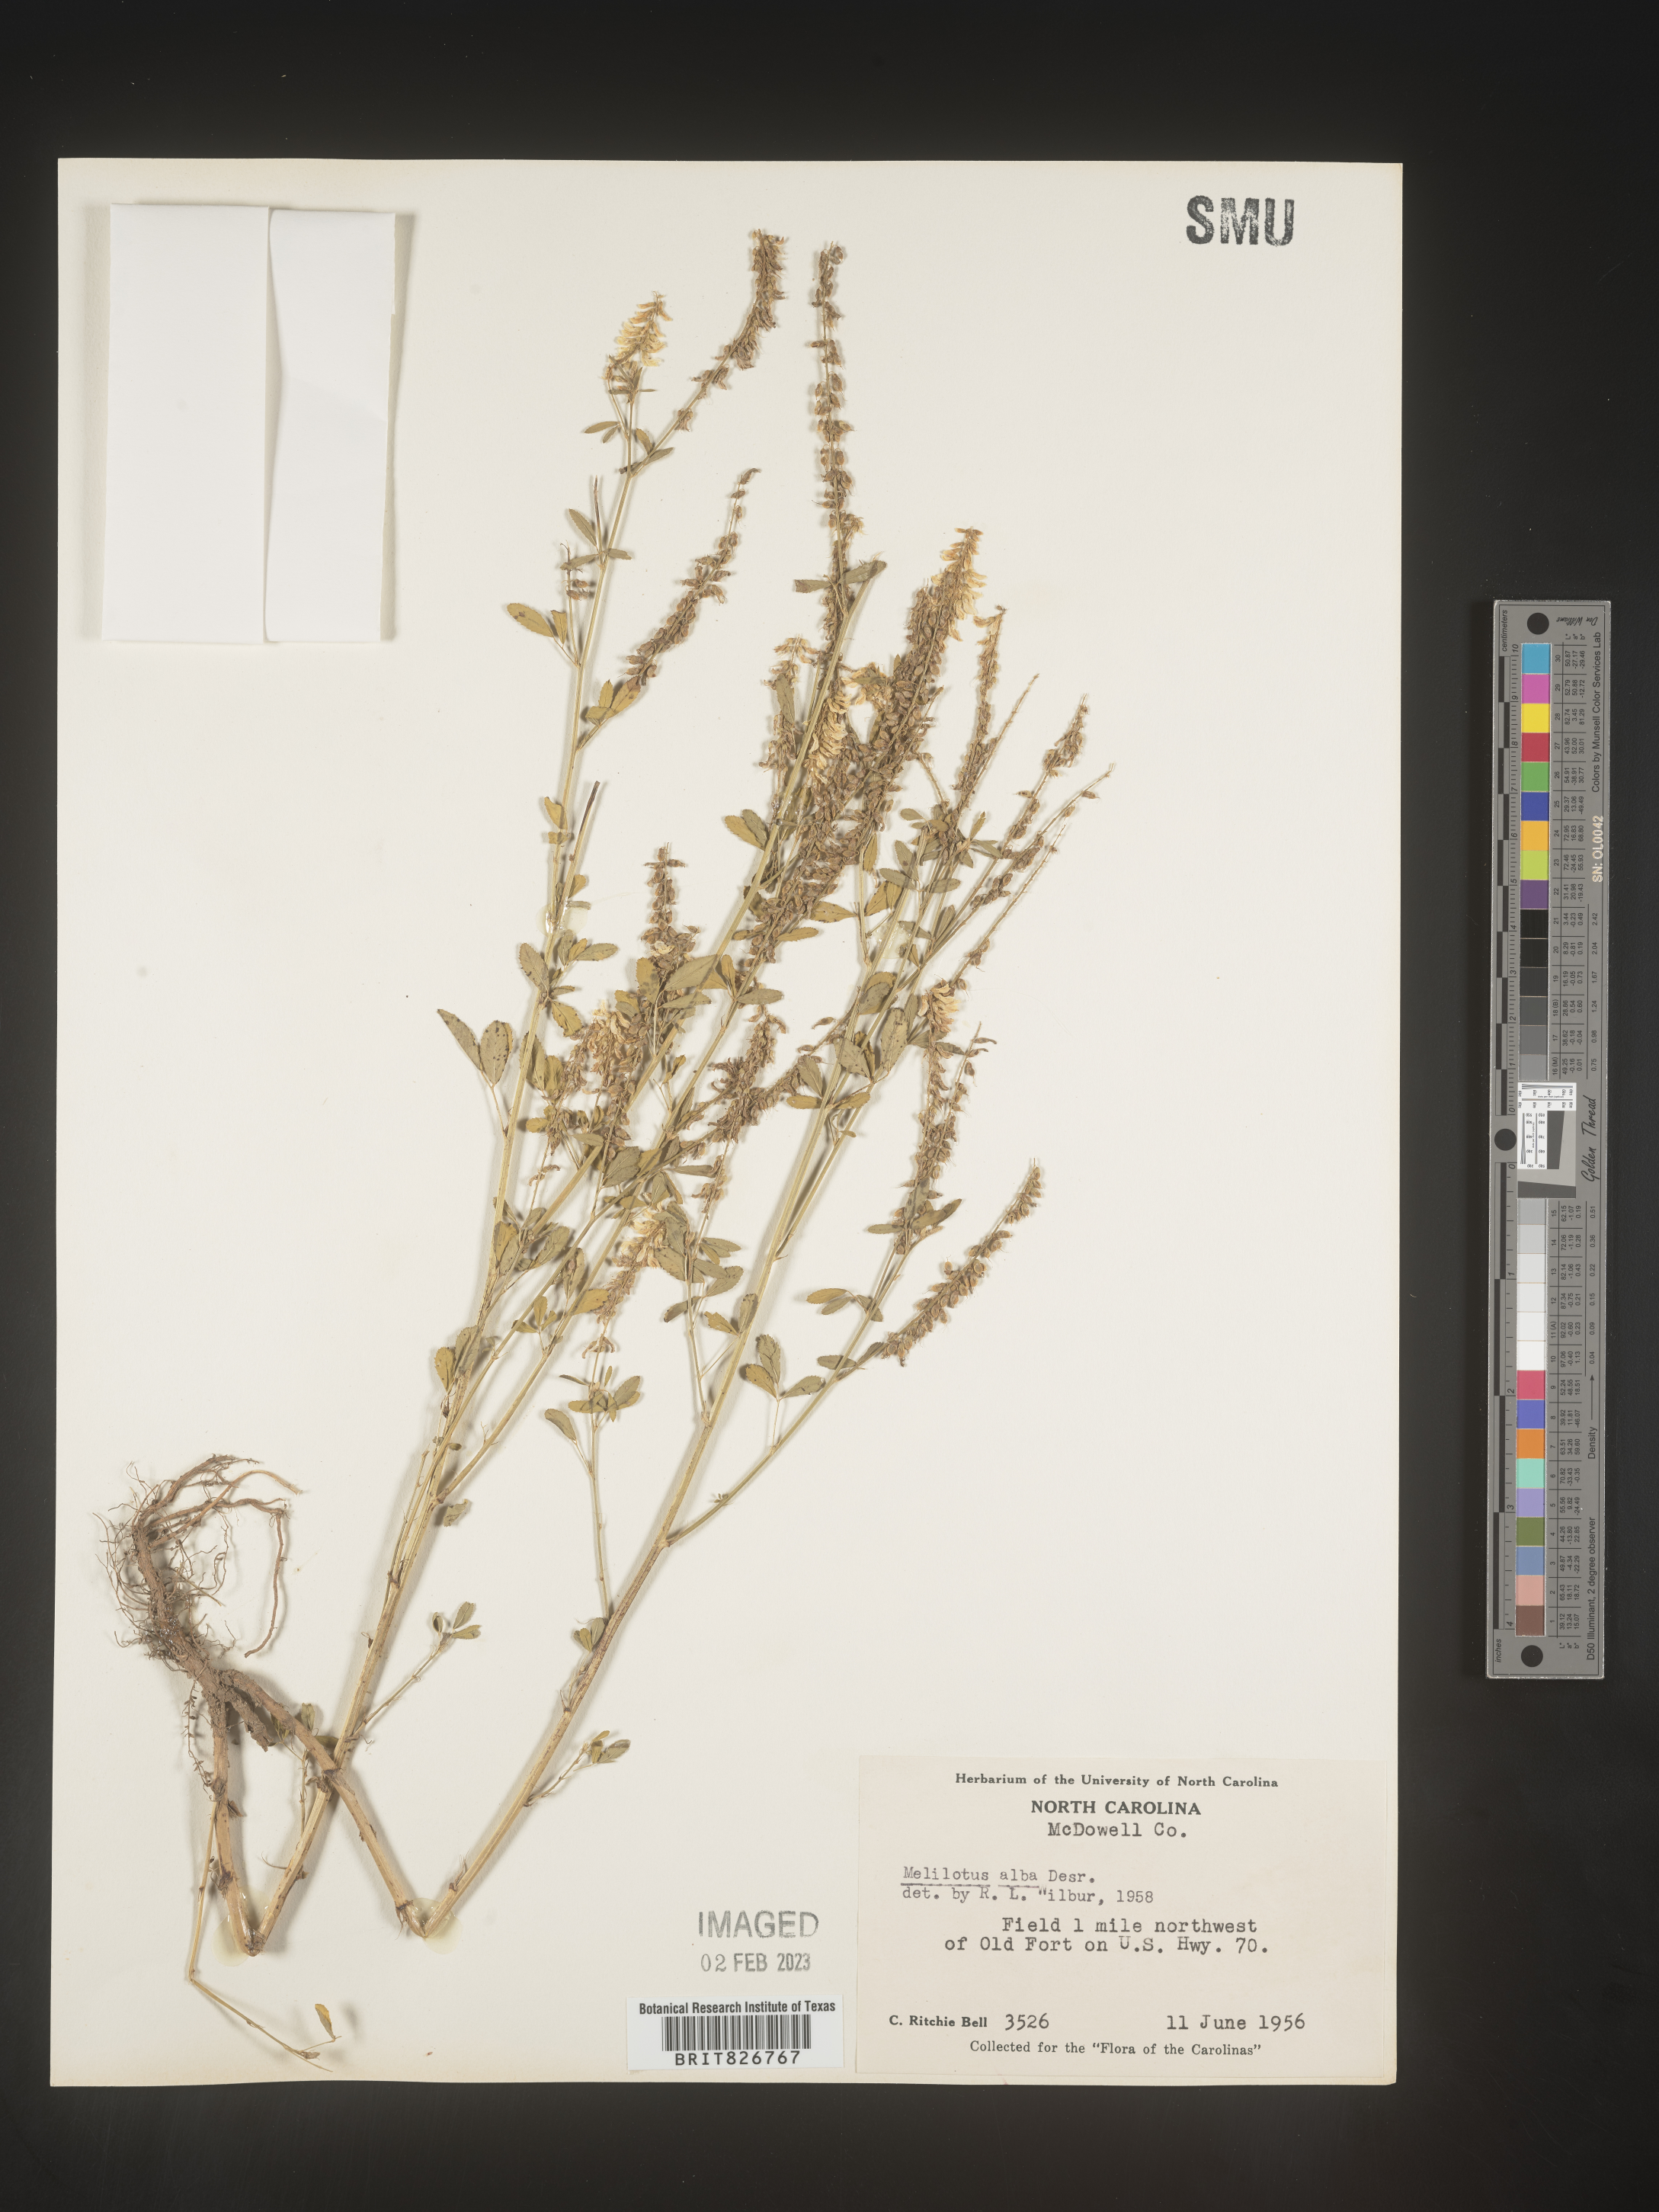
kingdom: Plantae
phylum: Tracheophyta
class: Magnoliopsida
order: Fabales
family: Fabaceae
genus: Melilotus
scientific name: Melilotus albus
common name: White melilot
